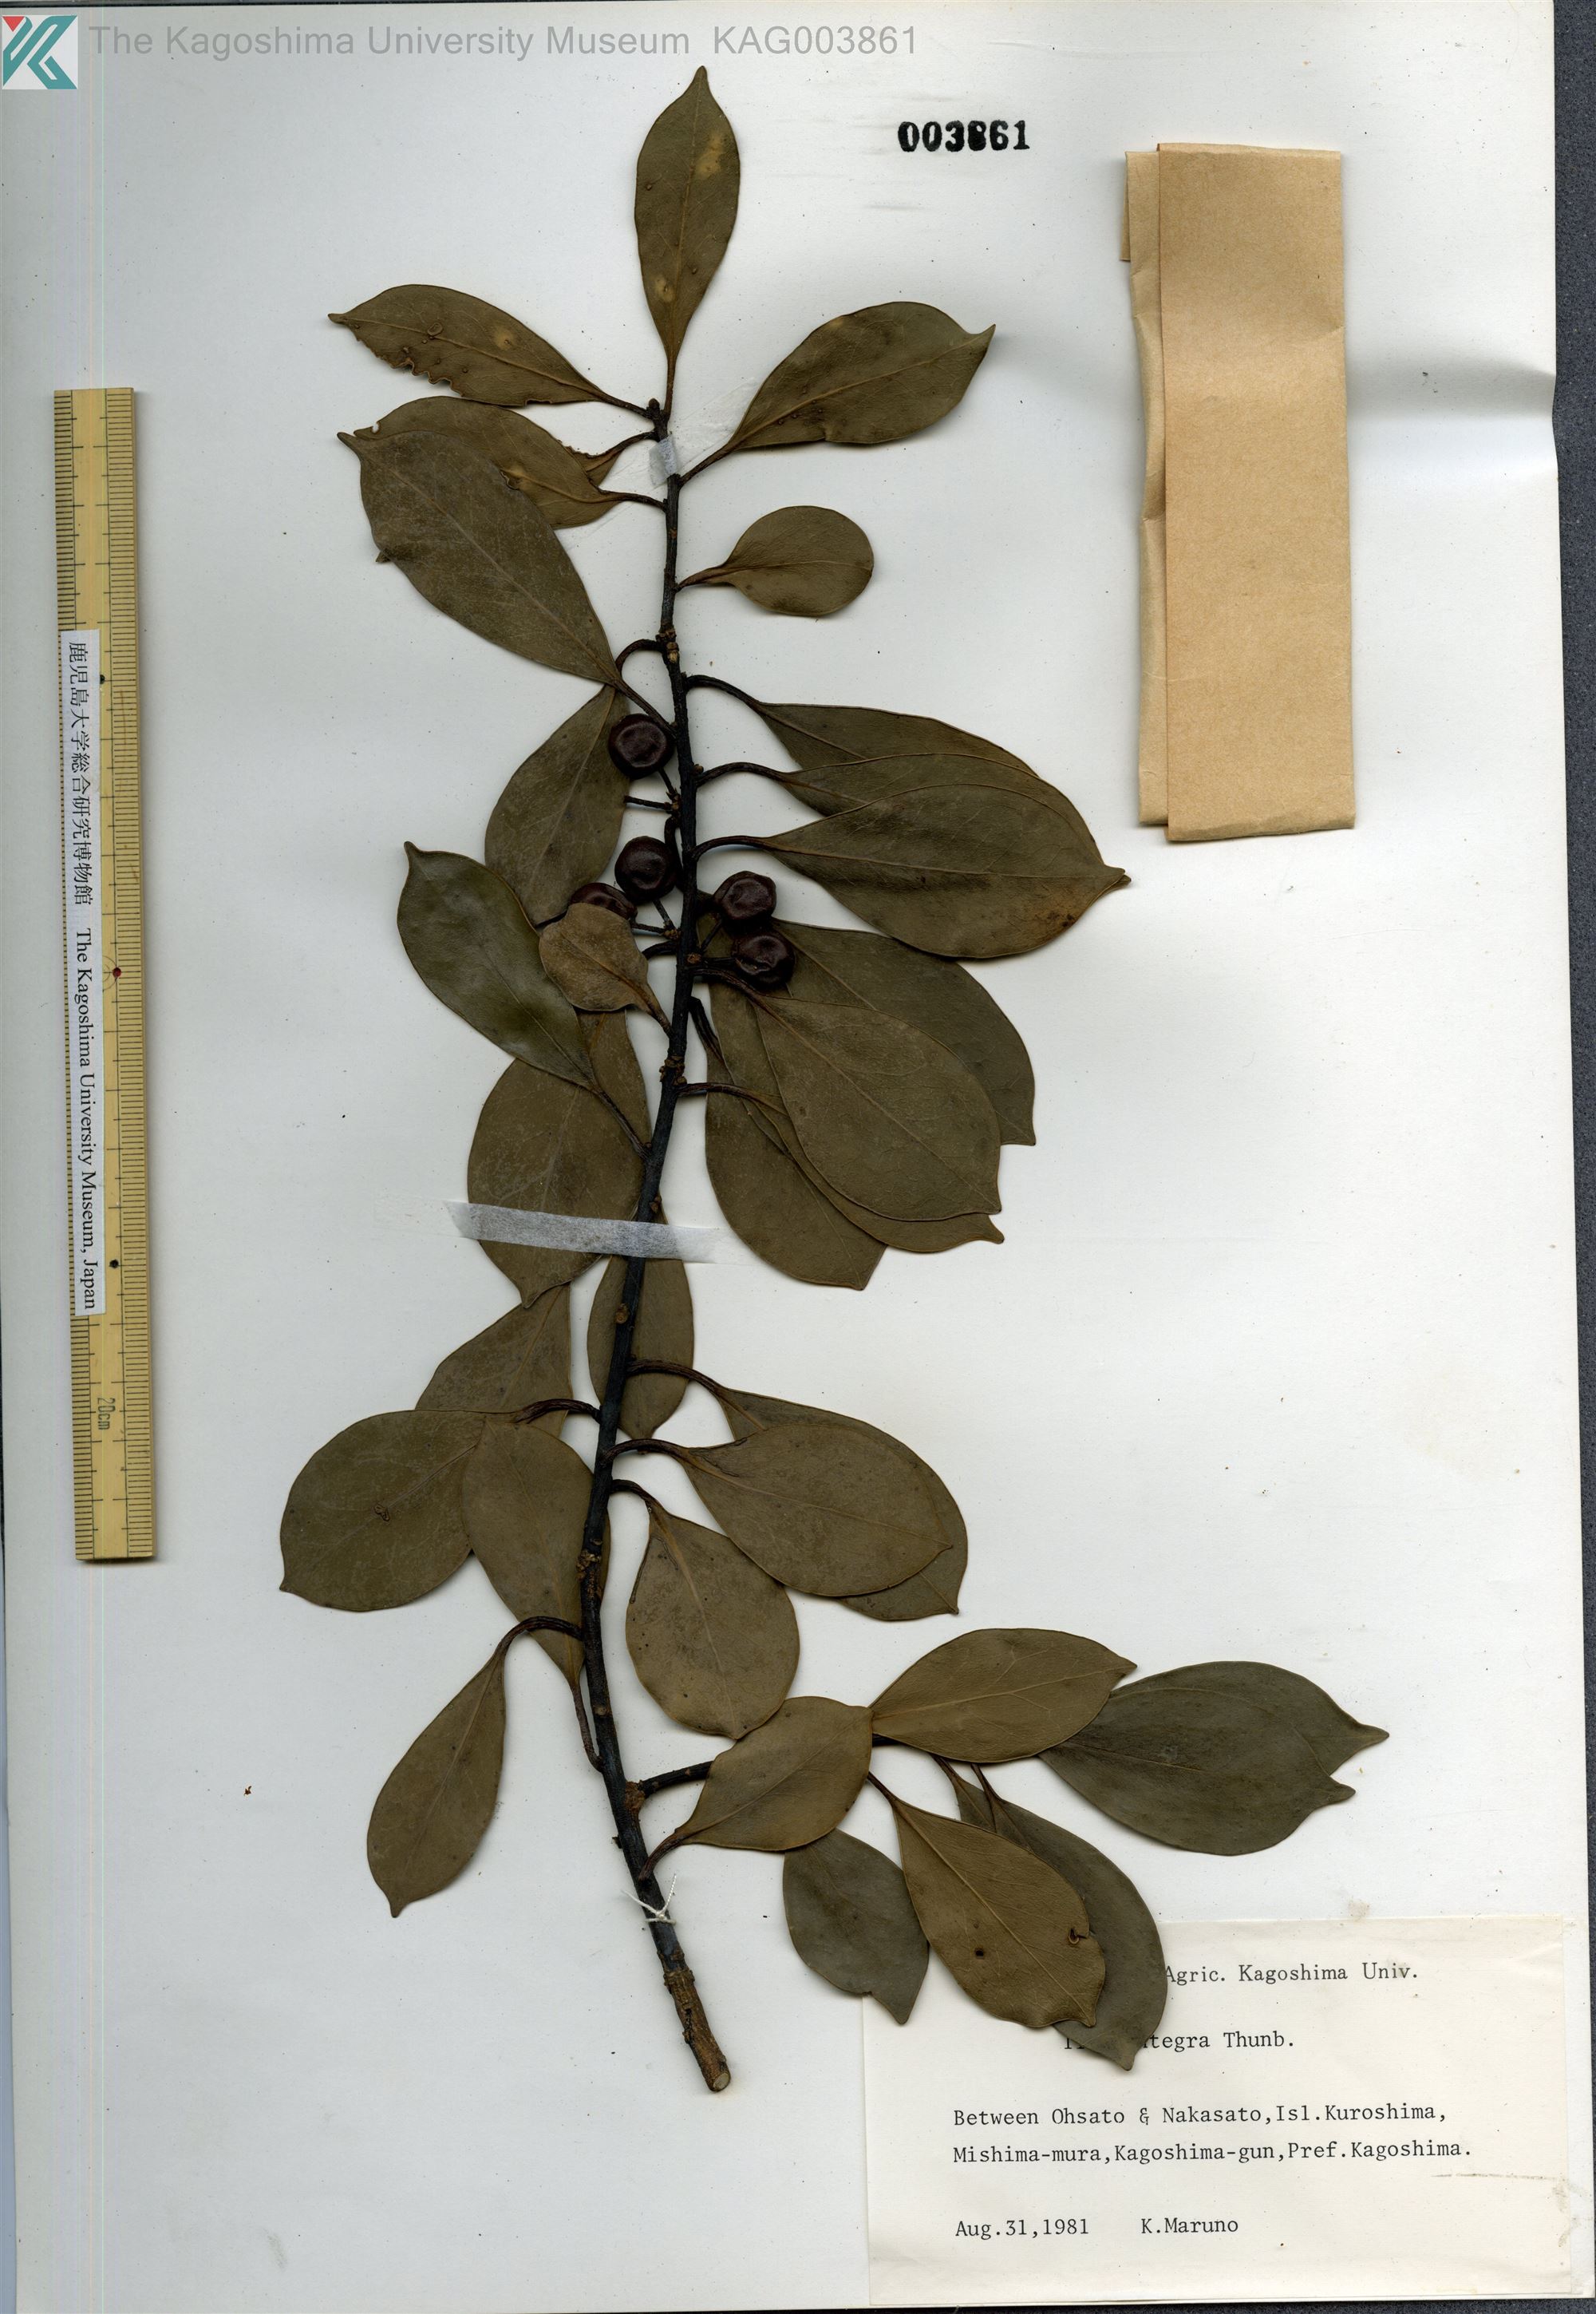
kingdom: Plantae
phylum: Tracheophyta
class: Magnoliopsida
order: Aquifoliales
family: Aquifoliaceae
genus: Ilex
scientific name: Ilex integra
